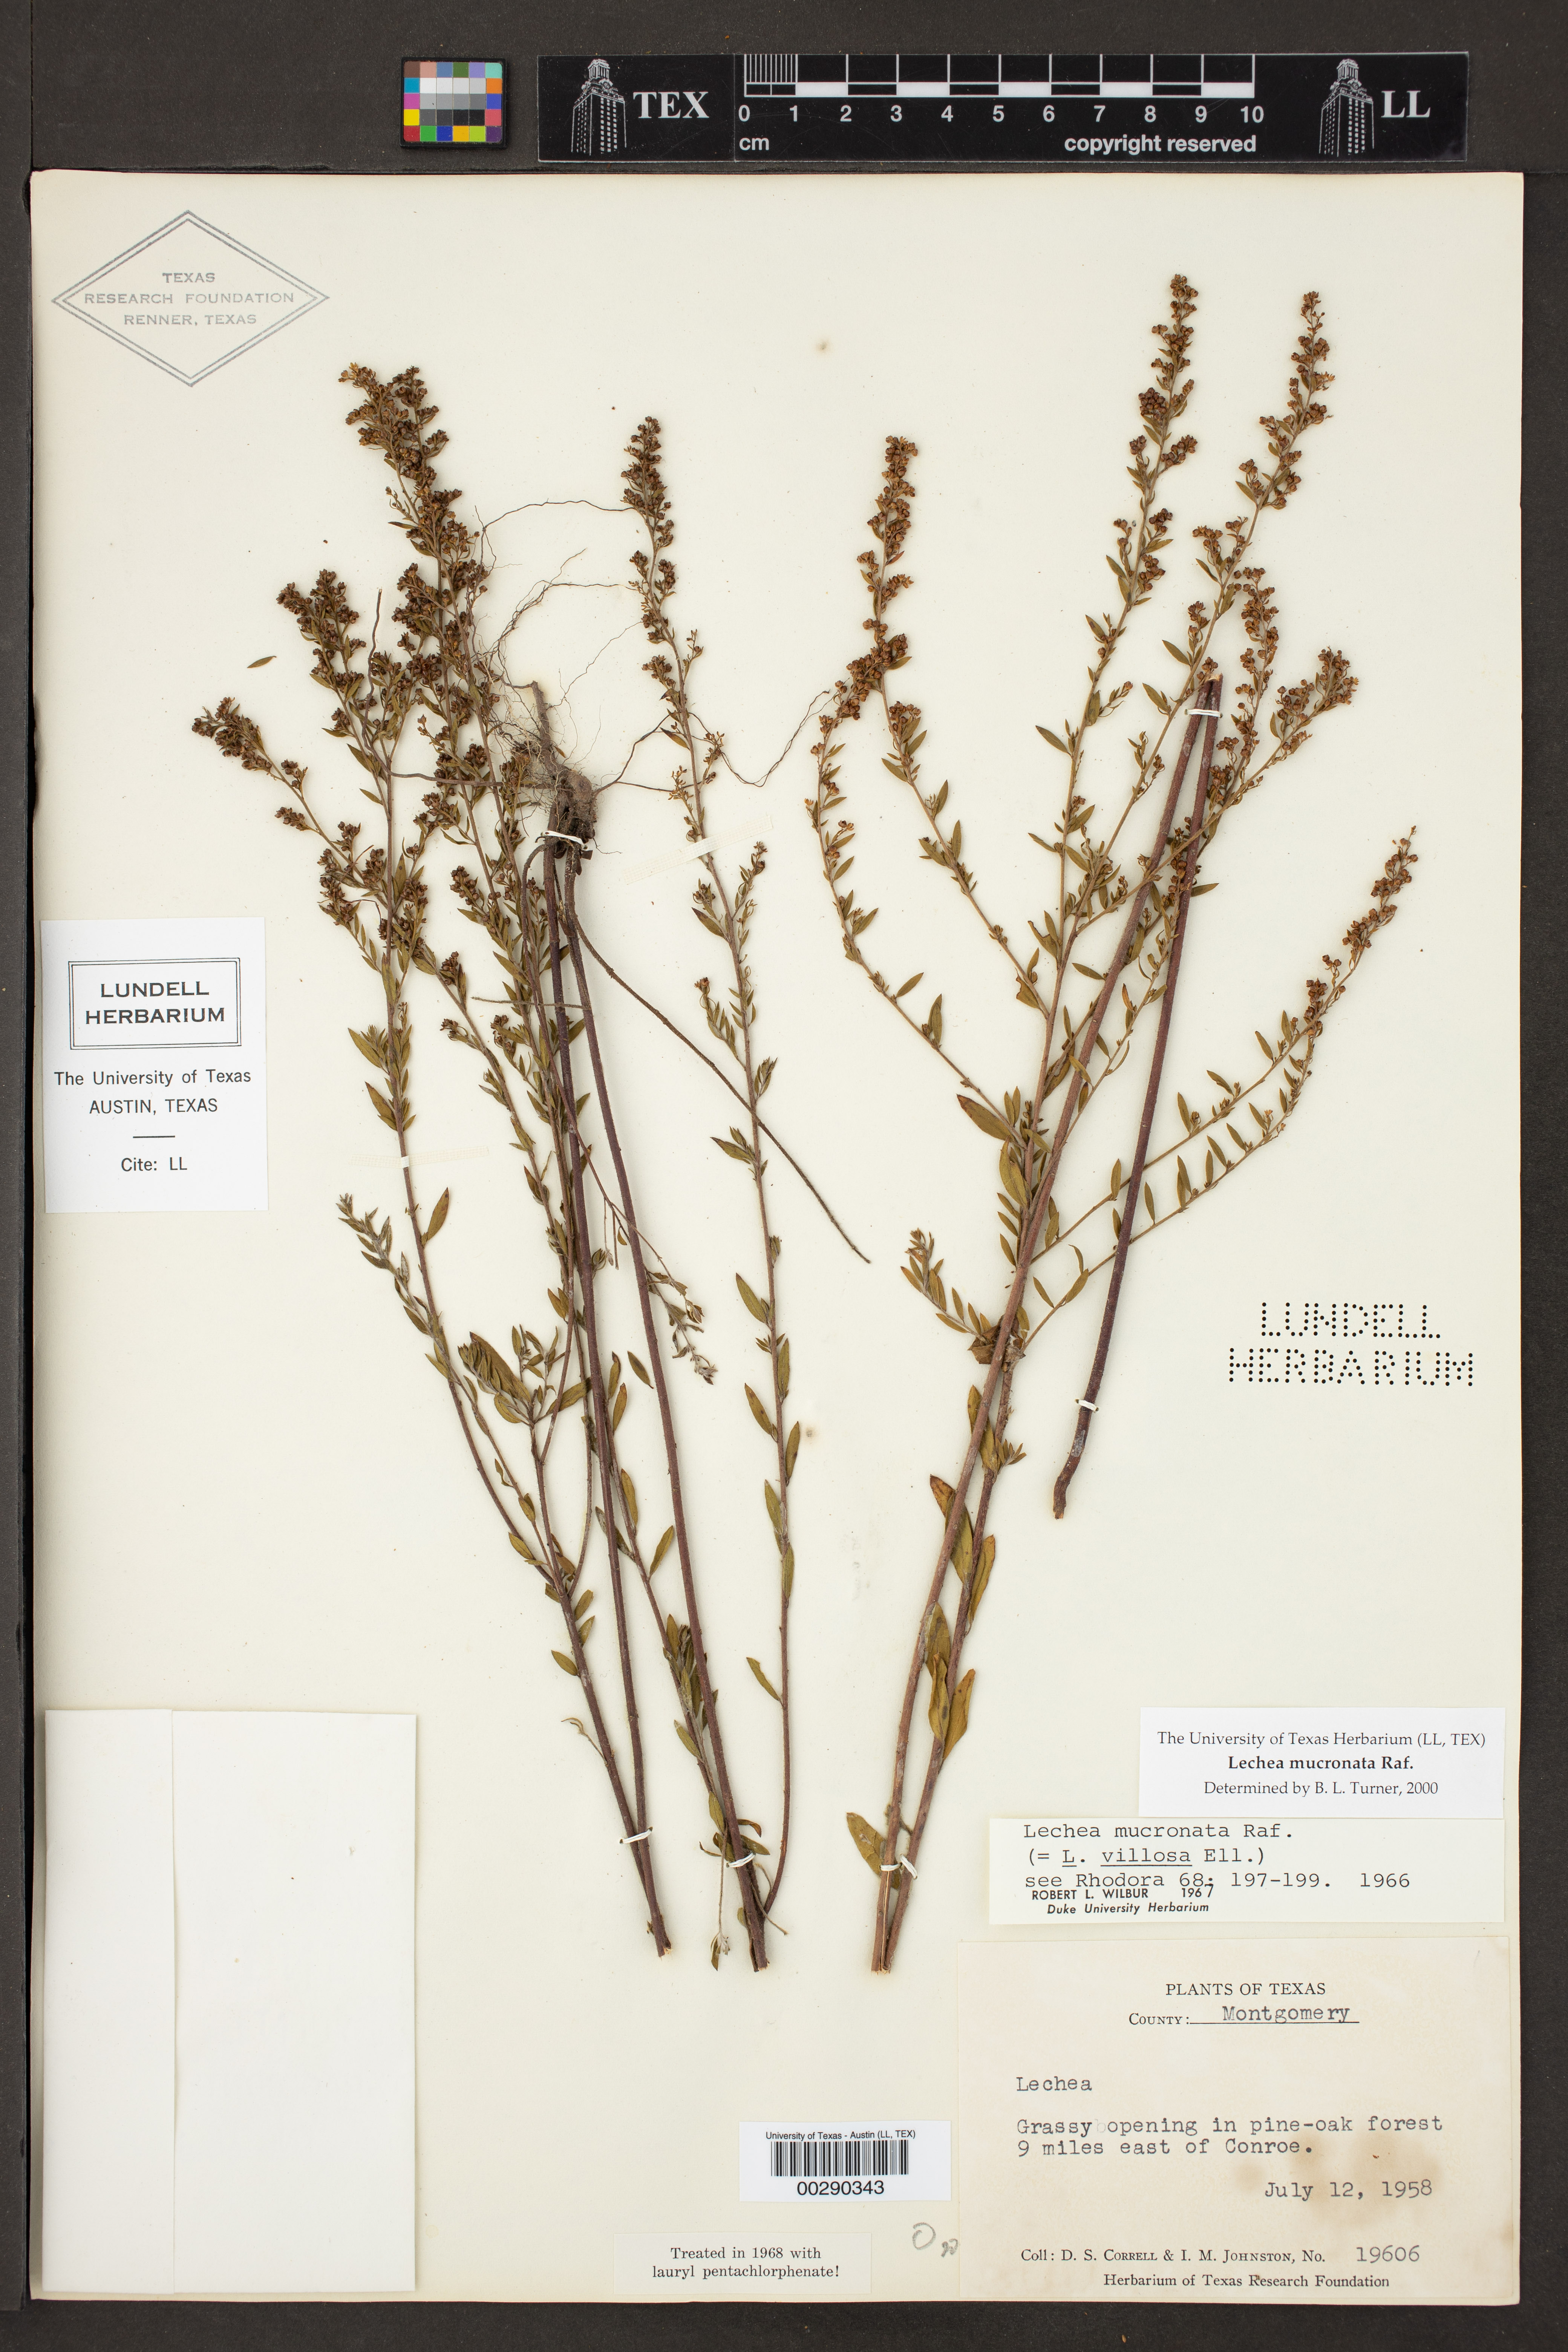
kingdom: Plantae
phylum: Tracheophyta
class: Magnoliopsida
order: Malvales
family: Cistaceae
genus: Lechea
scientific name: Lechea mucronata
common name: Hairy pinweed
